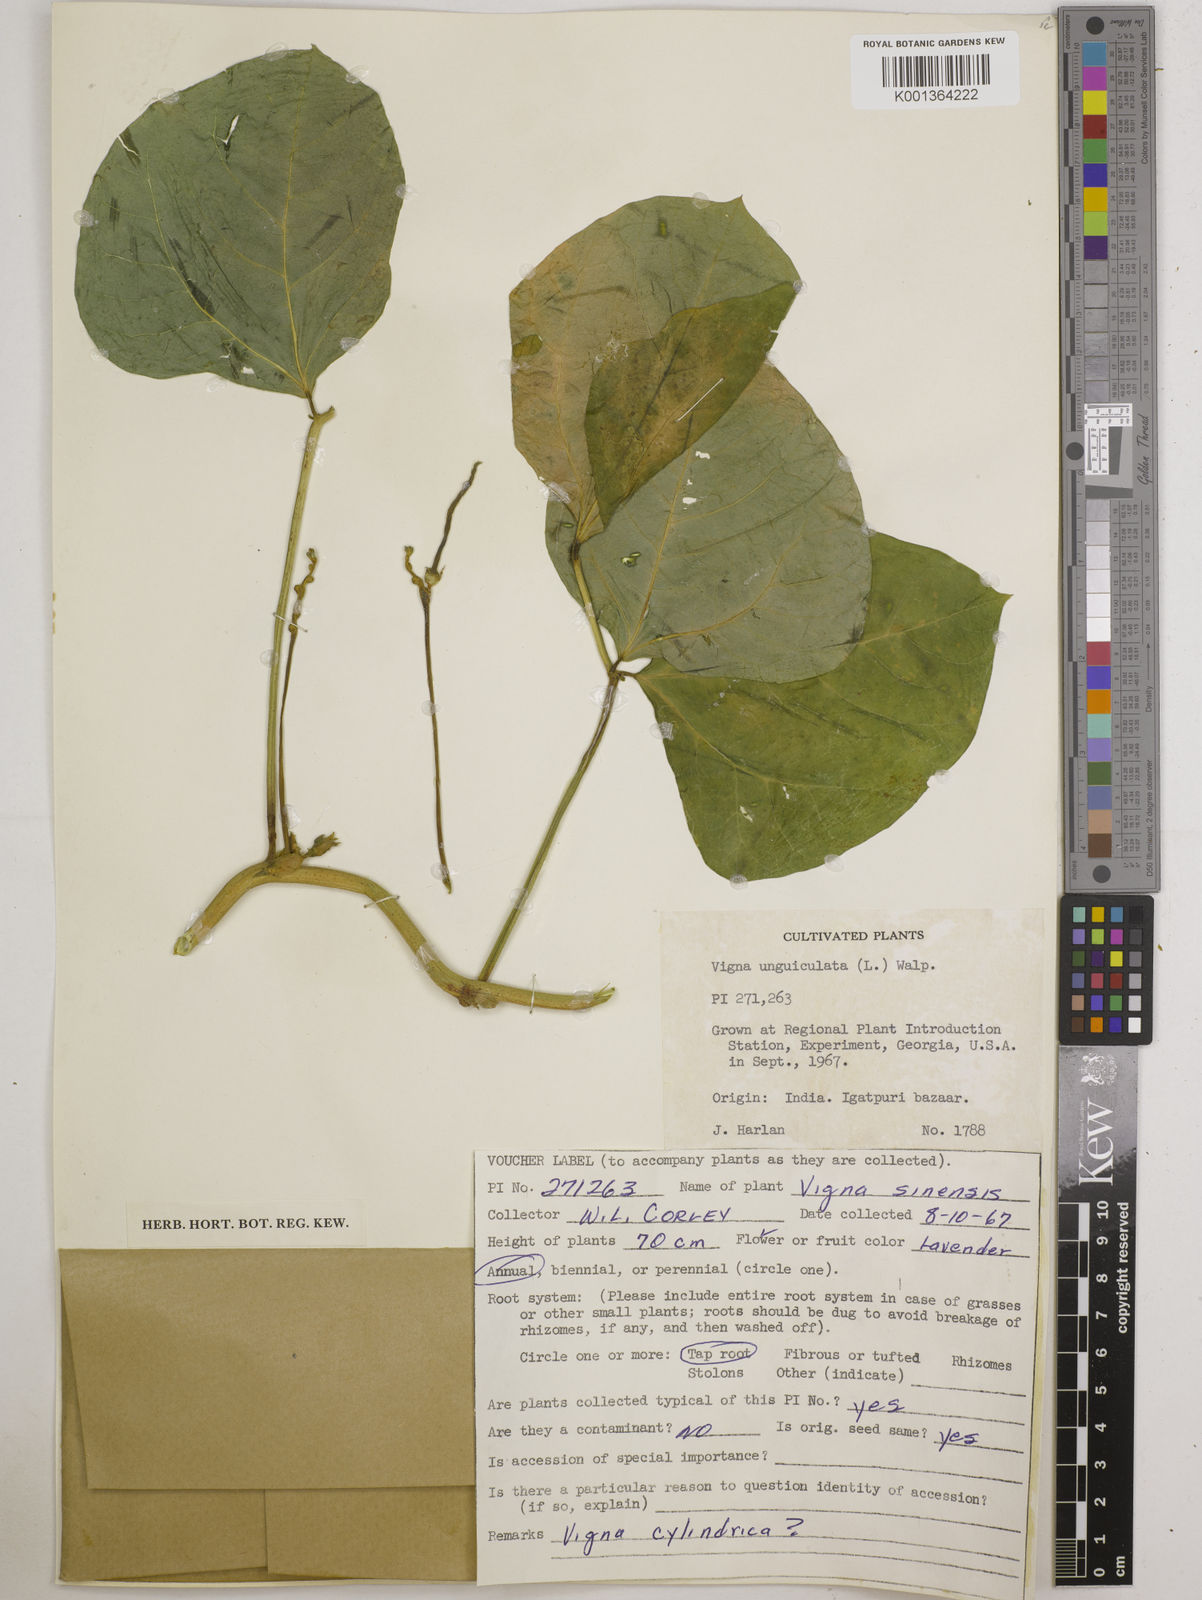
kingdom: Plantae
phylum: Tracheophyta
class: Magnoliopsida
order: Fabales
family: Fabaceae
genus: Vigna
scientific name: Vigna
